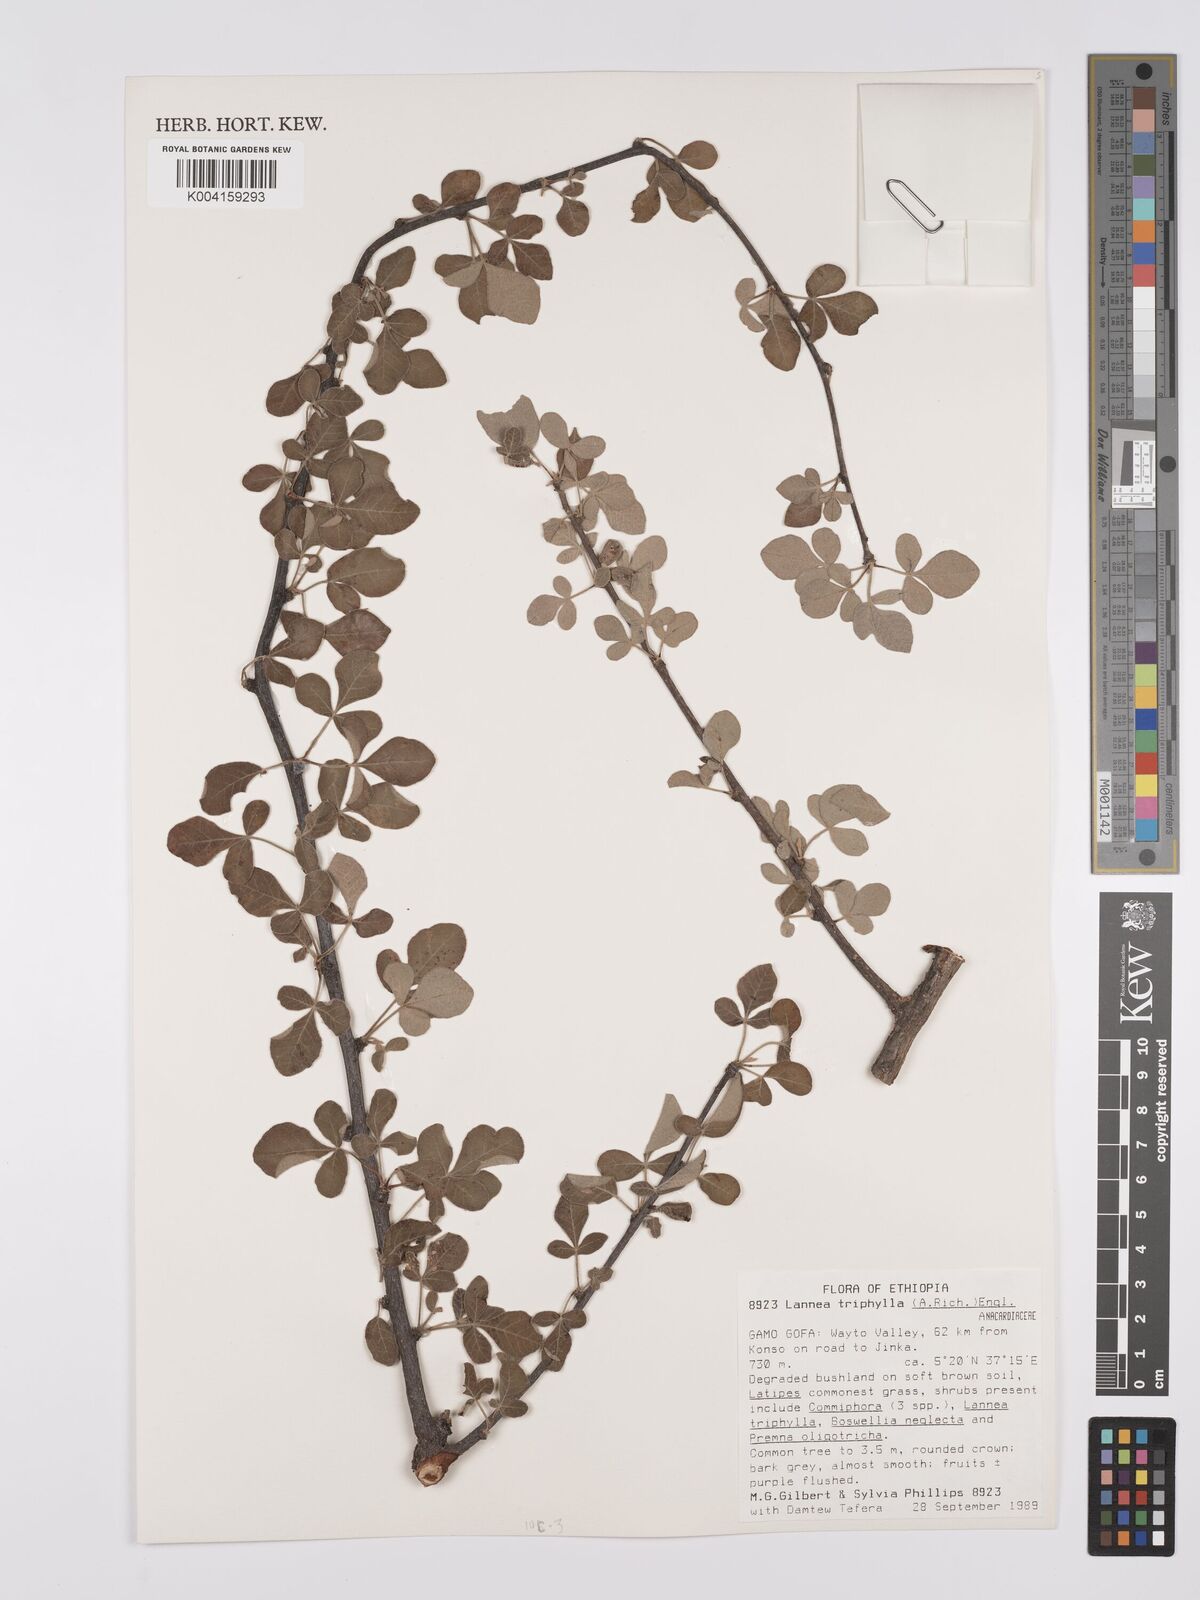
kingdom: Plantae
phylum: Tracheophyta
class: Magnoliopsida
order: Sapindales
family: Anacardiaceae
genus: Lannea
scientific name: Lannea triphylla
